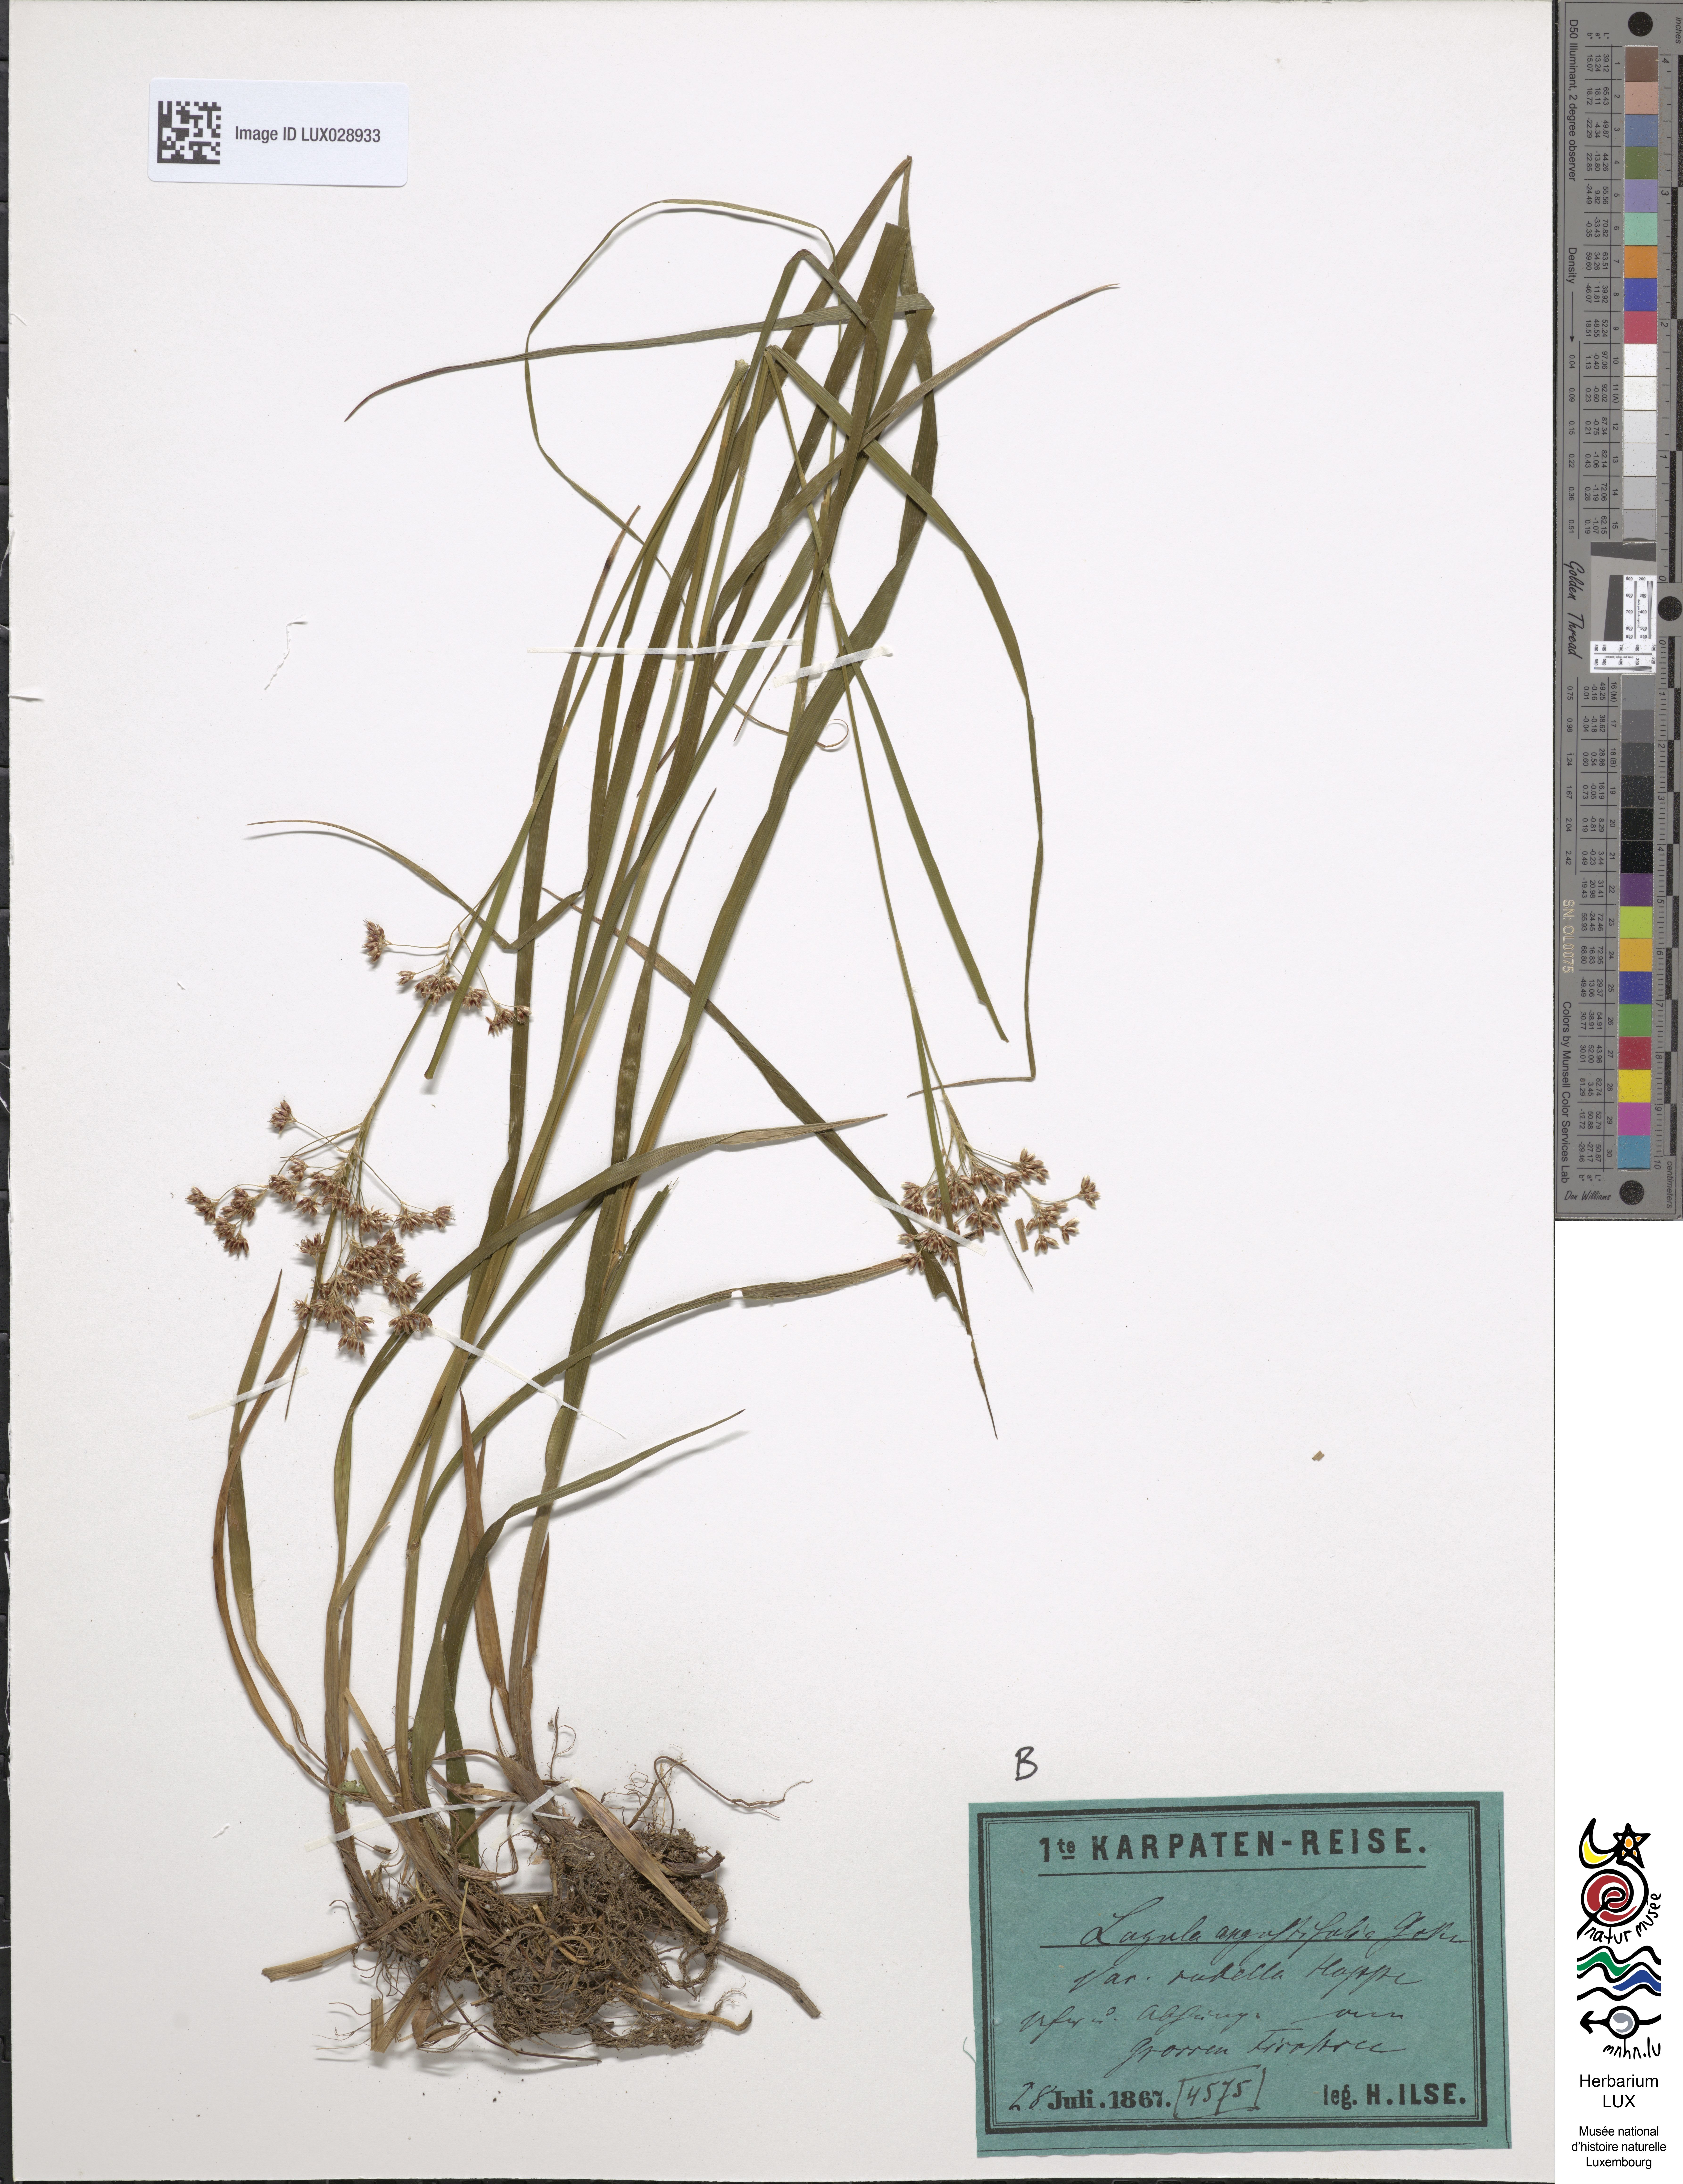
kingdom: Plantae
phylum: Tracheophyta
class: Liliopsida
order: Poales
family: Juncaceae
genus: Luzula
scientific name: Luzula luzuloides
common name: White wood-rush
